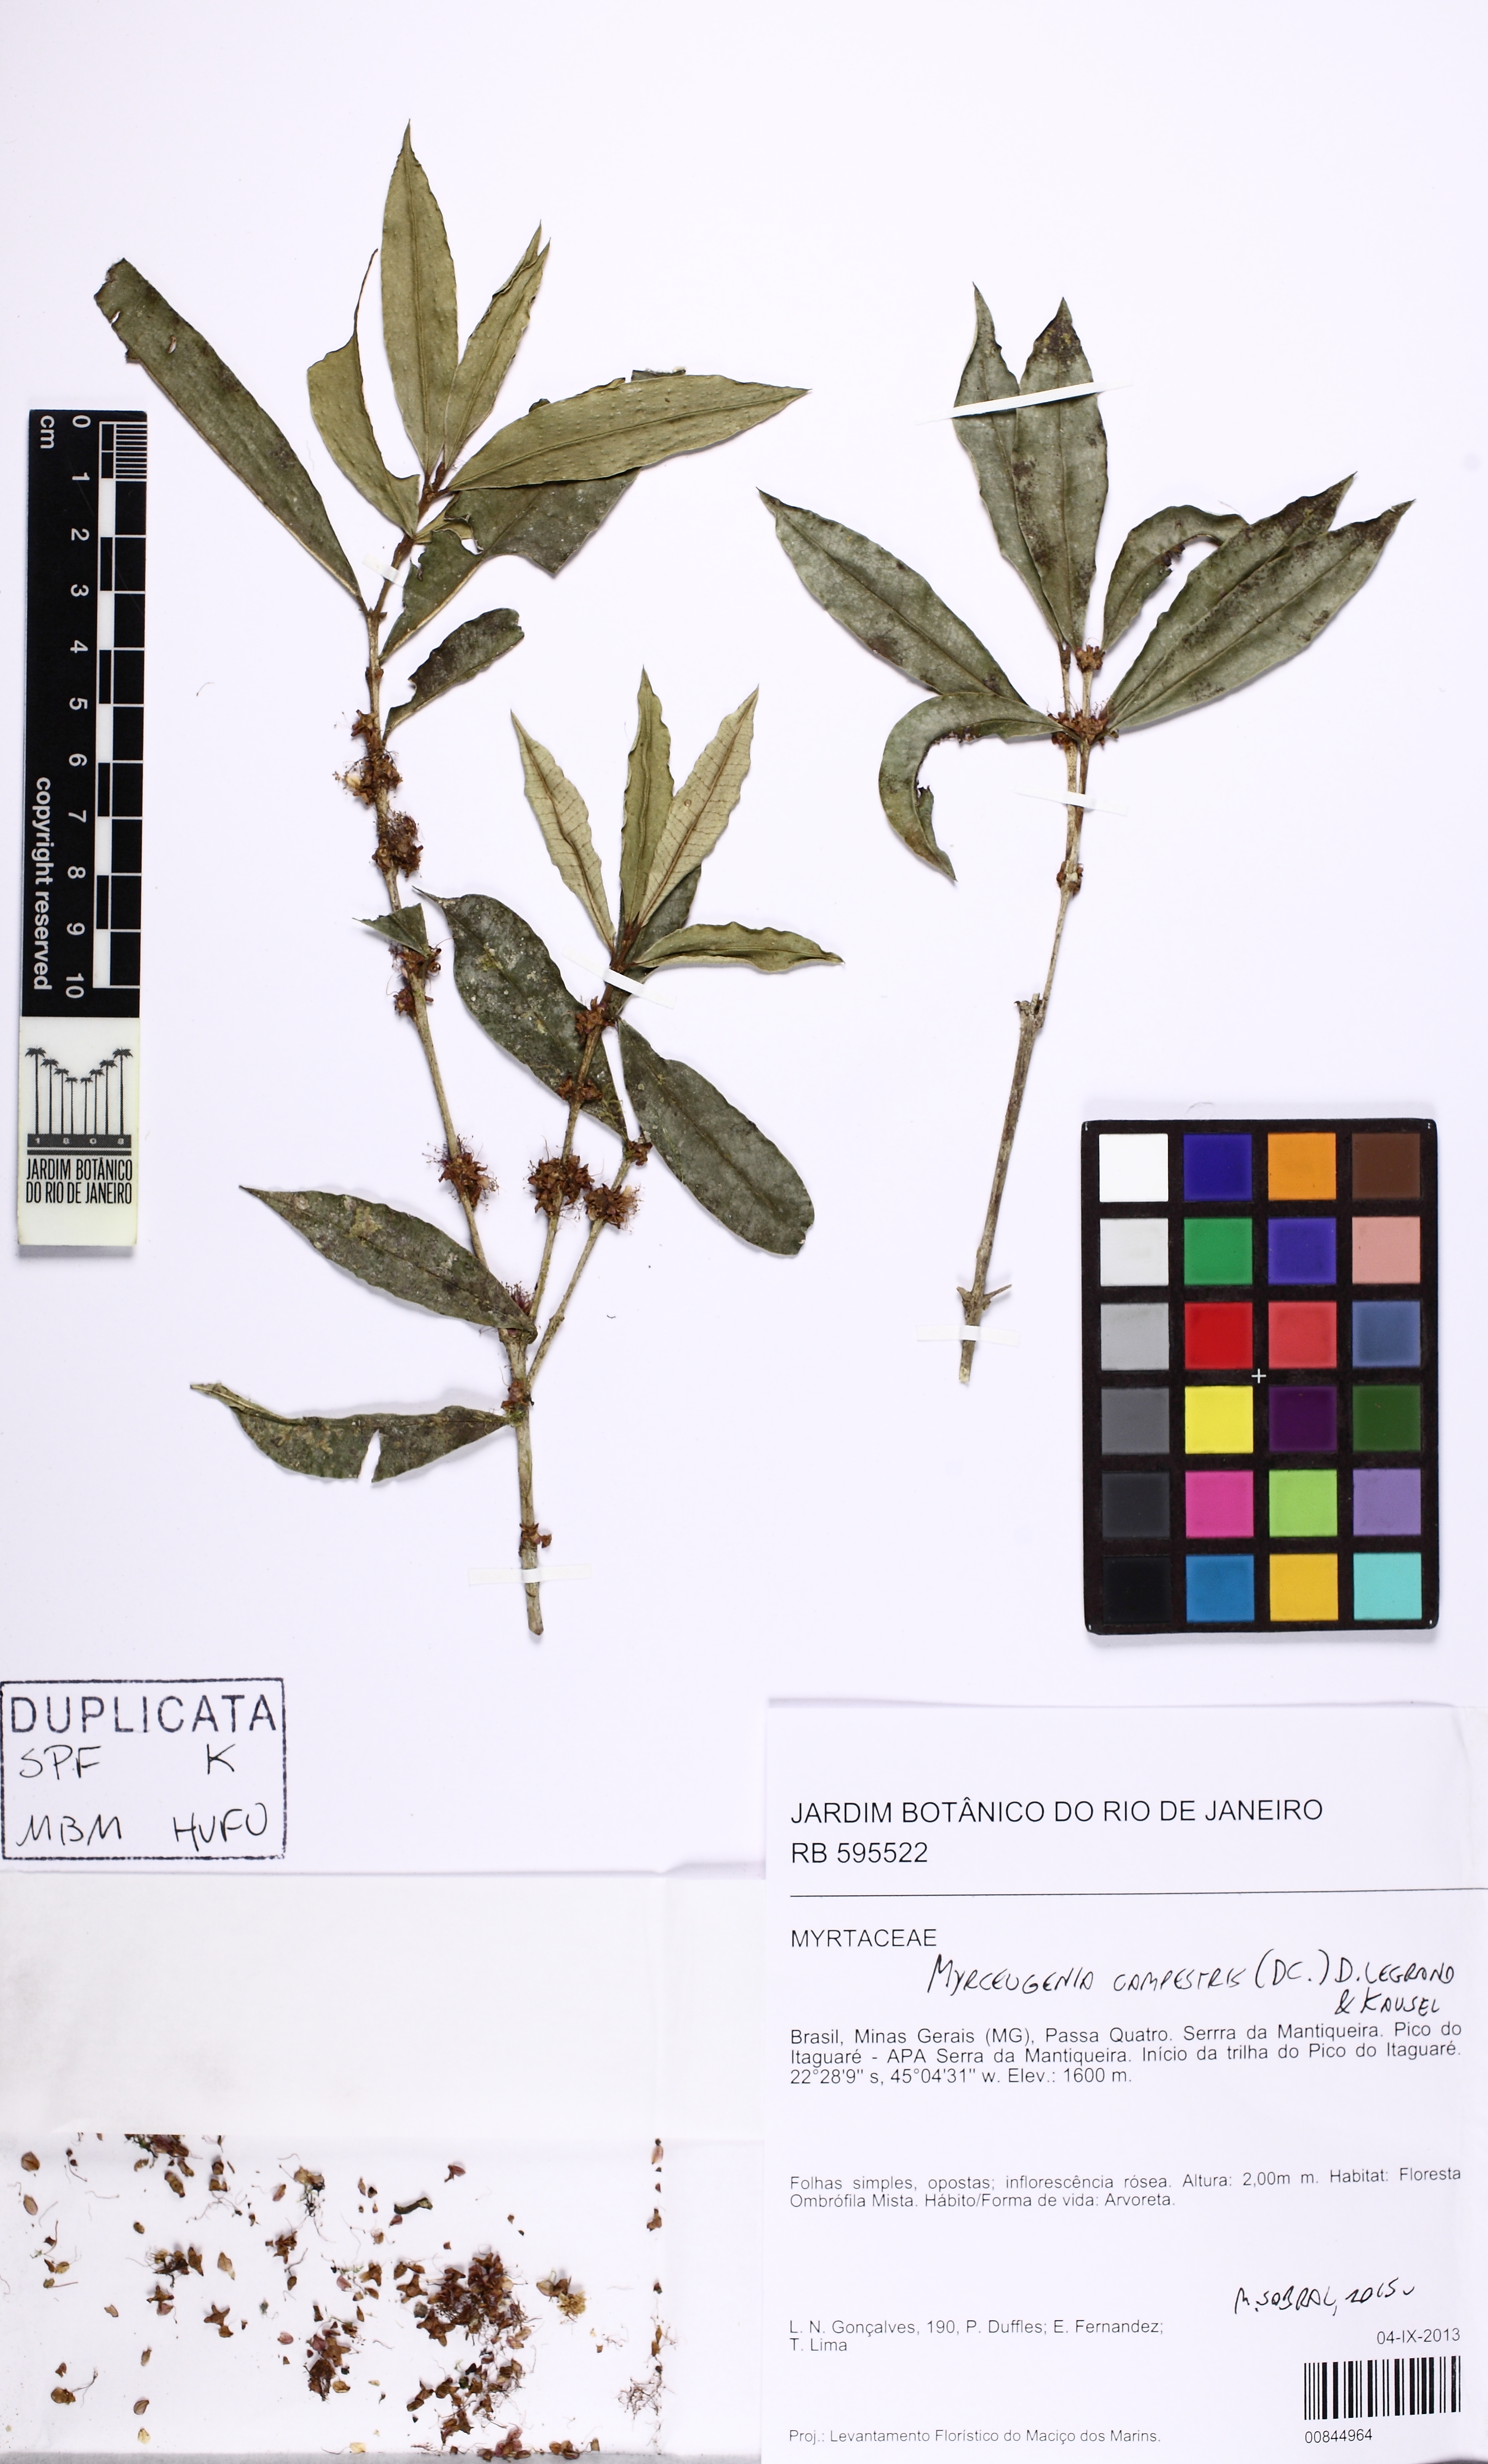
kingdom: Plantae
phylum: Tracheophyta
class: Magnoliopsida
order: Myrtales
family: Myrtaceae
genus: Myrceugenia
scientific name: Myrceugenia campestris
